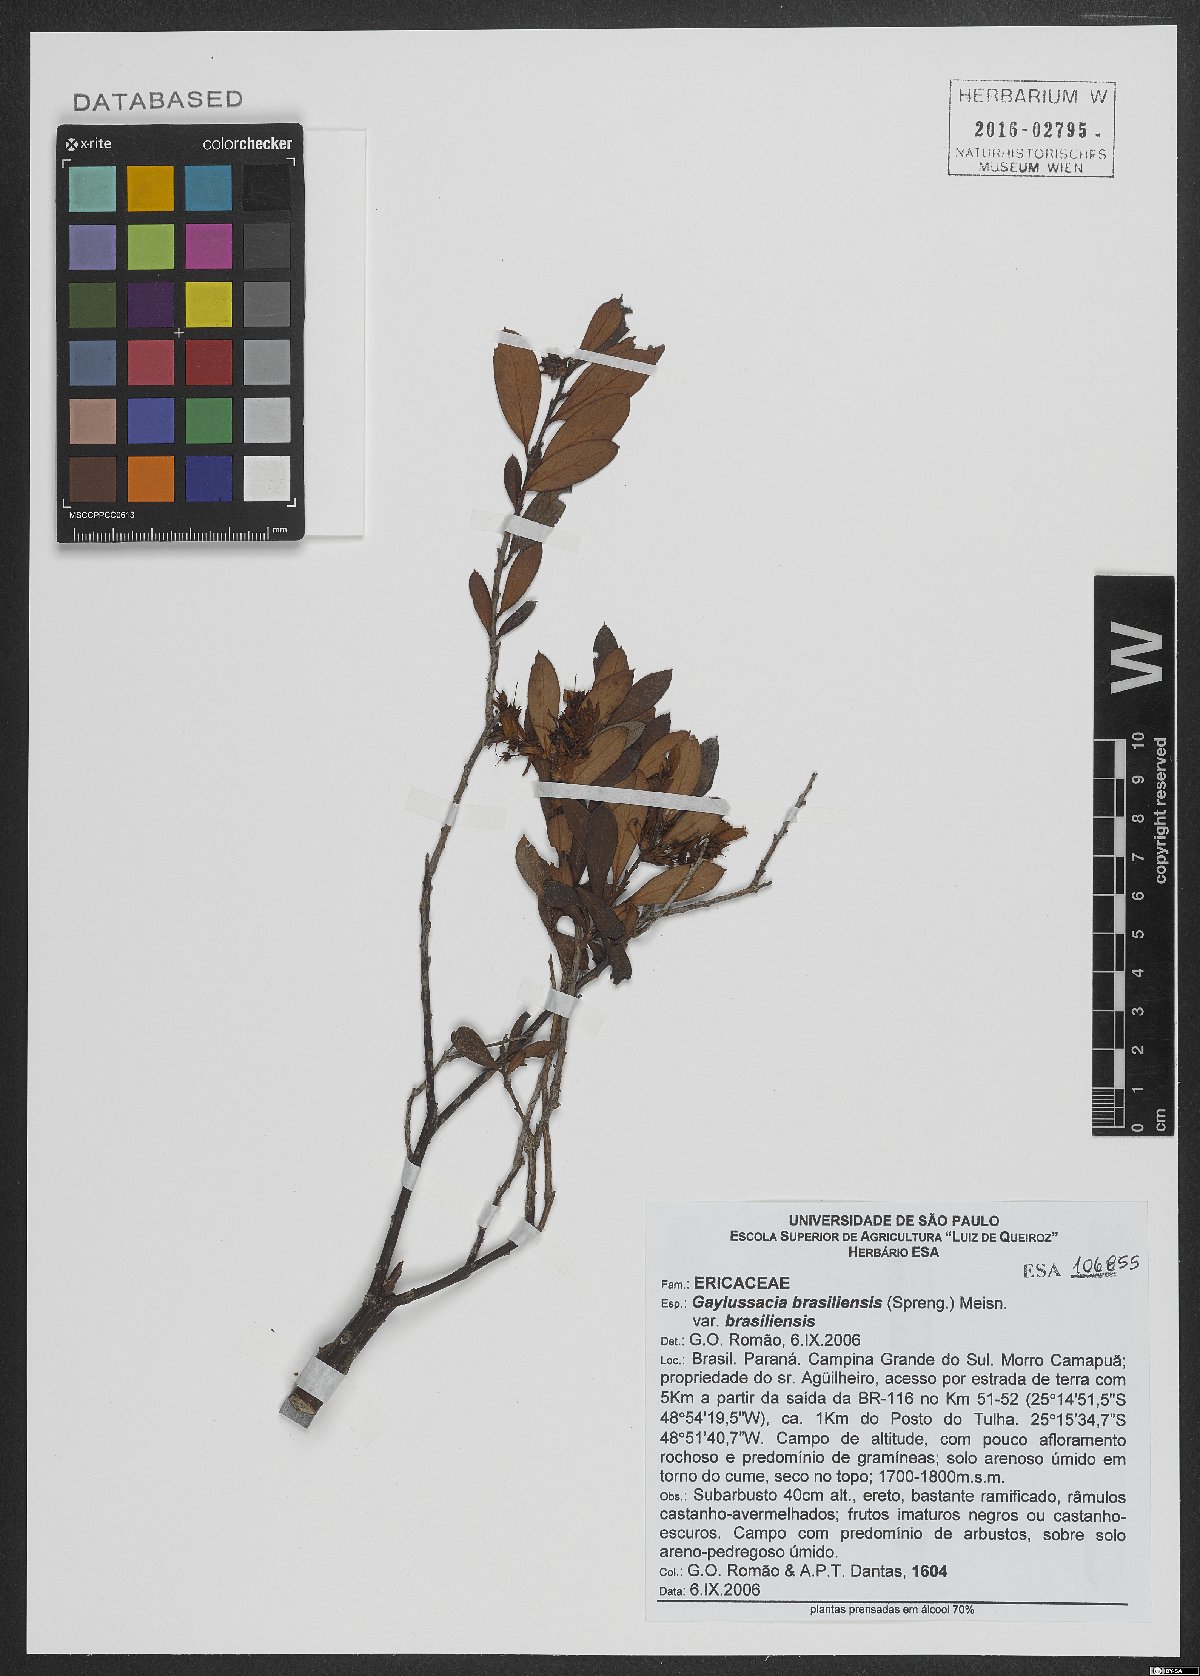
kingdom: Plantae
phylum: Tracheophyta
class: Magnoliopsida
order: Ericales
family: Ericaceae
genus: Gaylussacia
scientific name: Gaylussacia brasiliensis
